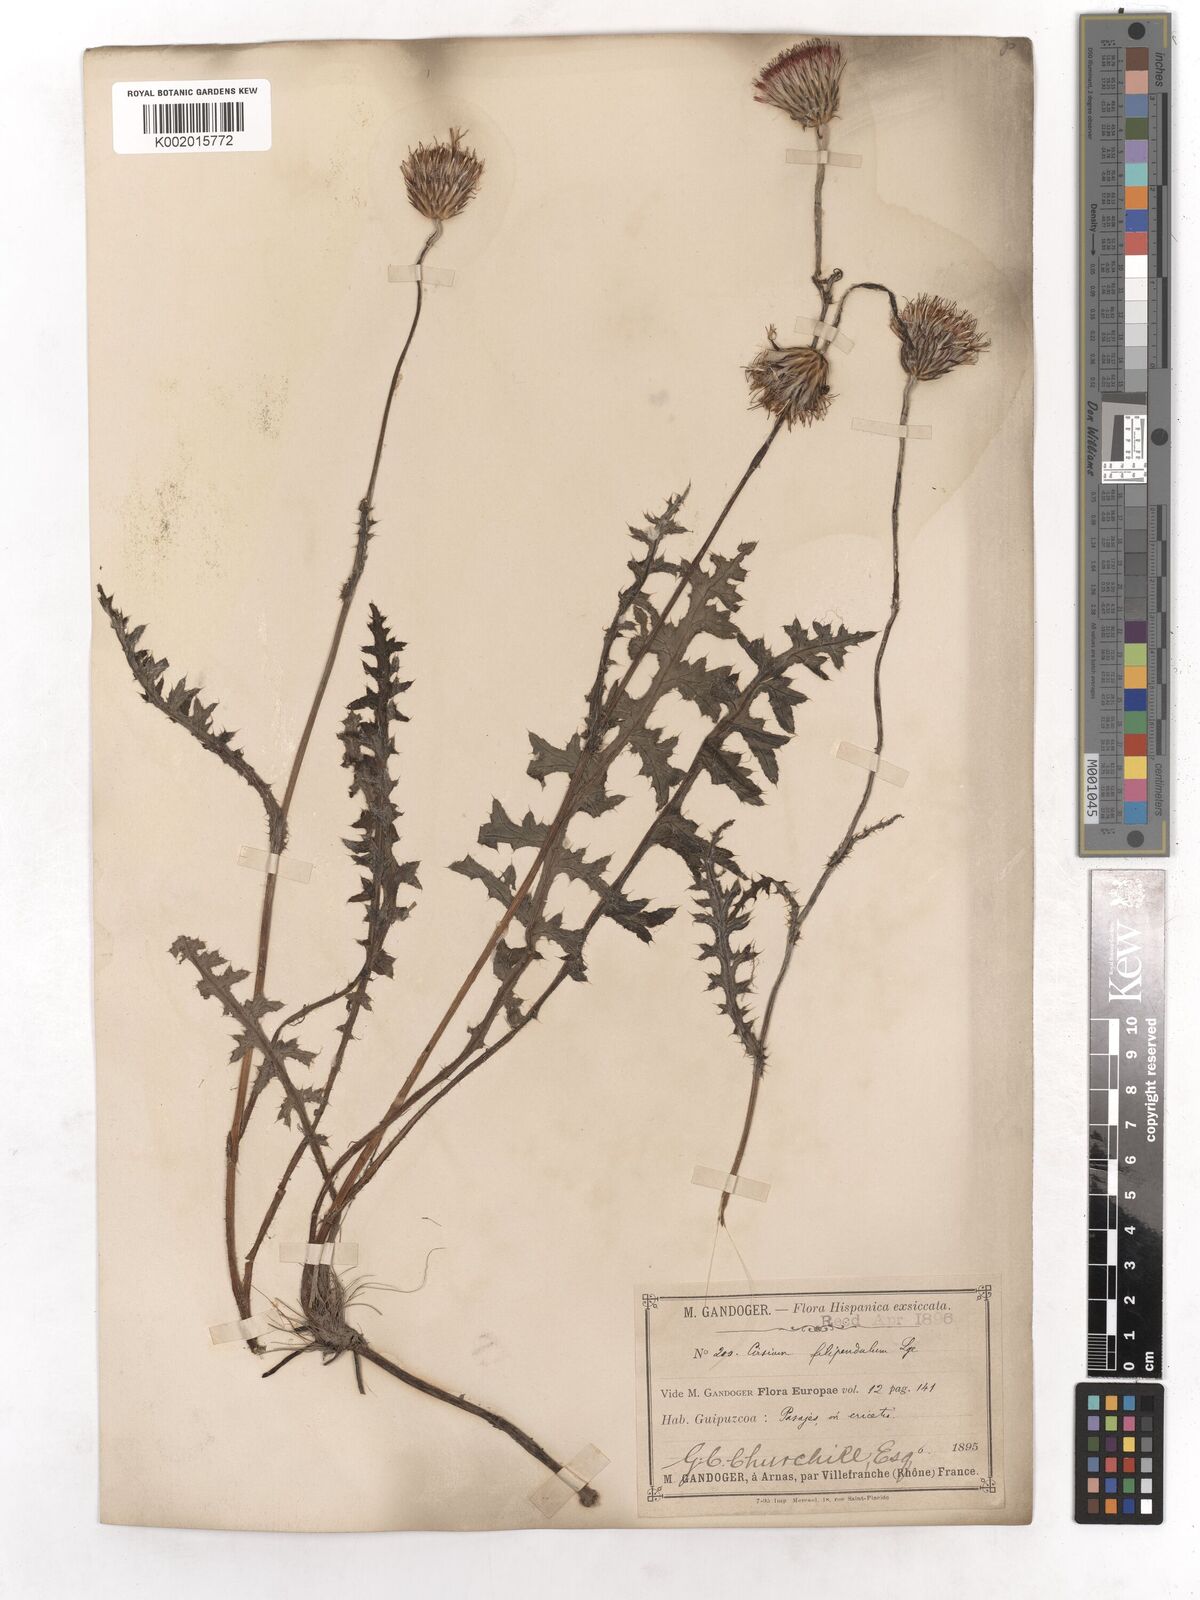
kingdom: Plantae
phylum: Tracheophyta
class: Magnoliopsida
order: Asterales
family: Asteraceae
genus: Cirsium
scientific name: Cirsium filipendulum
